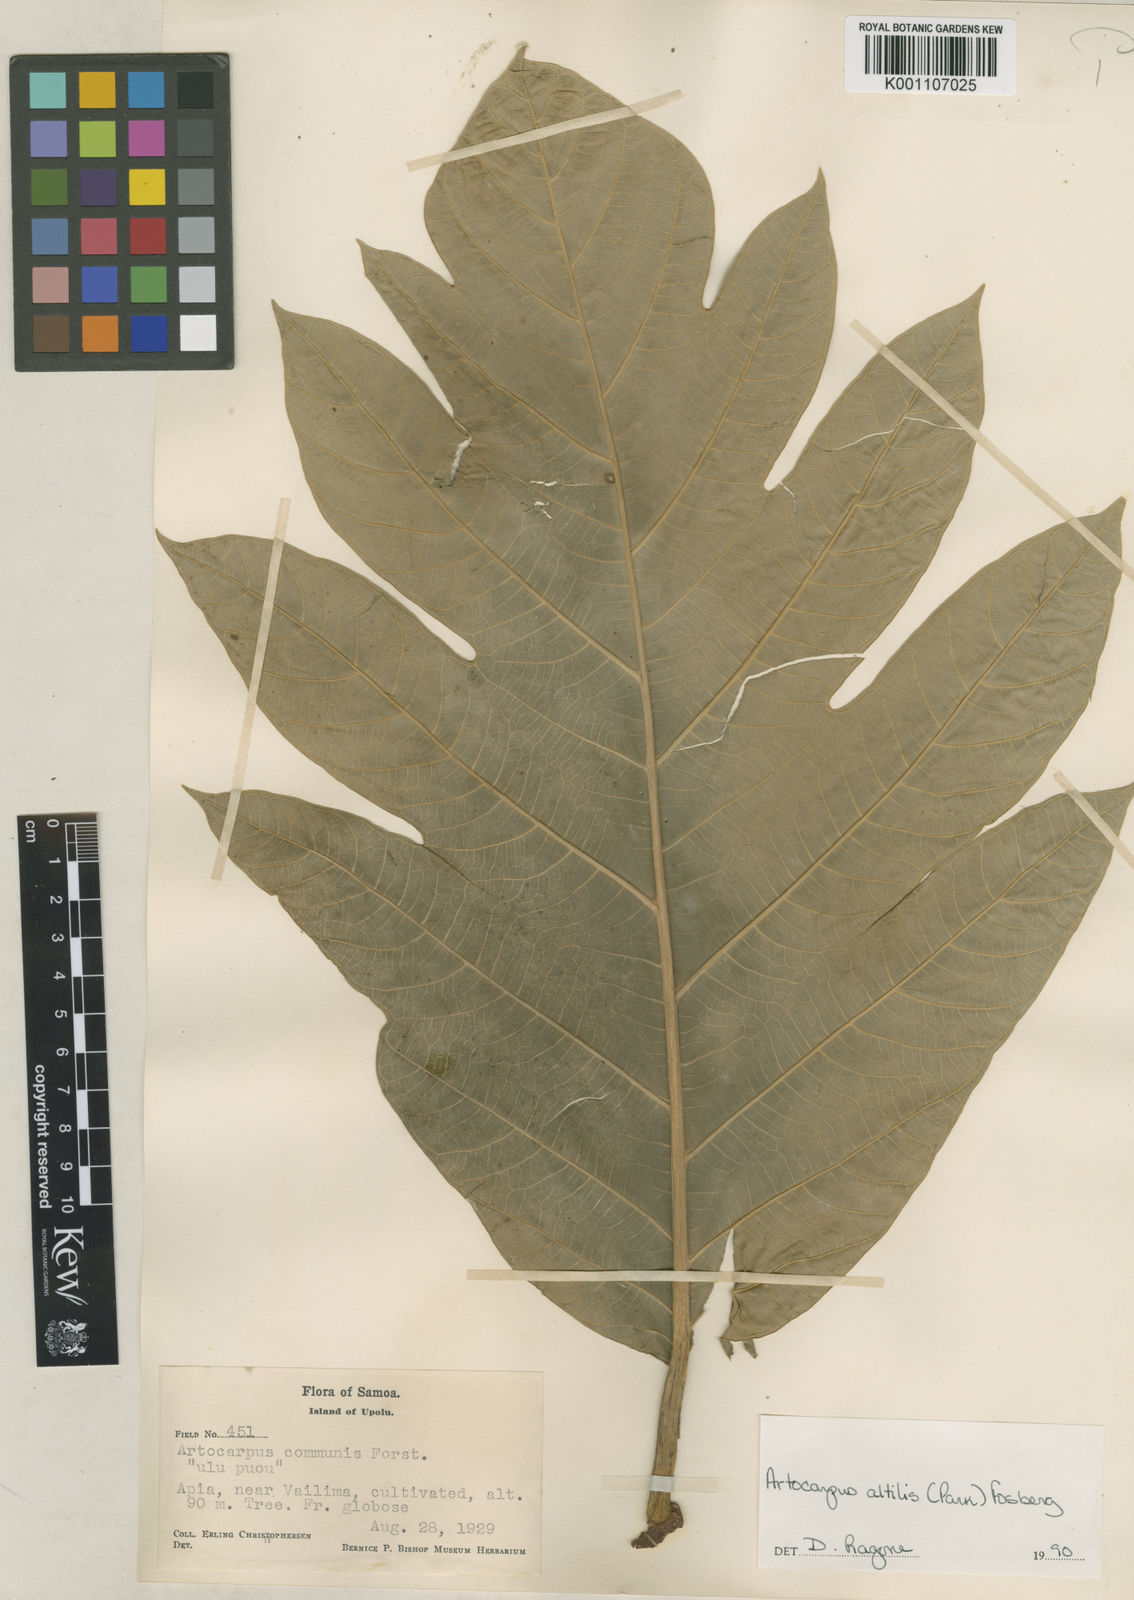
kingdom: Plantae
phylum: Tracheophyta
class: Magnoliopsida
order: Rosales
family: Moraceae
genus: Artocarpus
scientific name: Artocarpus altilis
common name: Breadfruit
